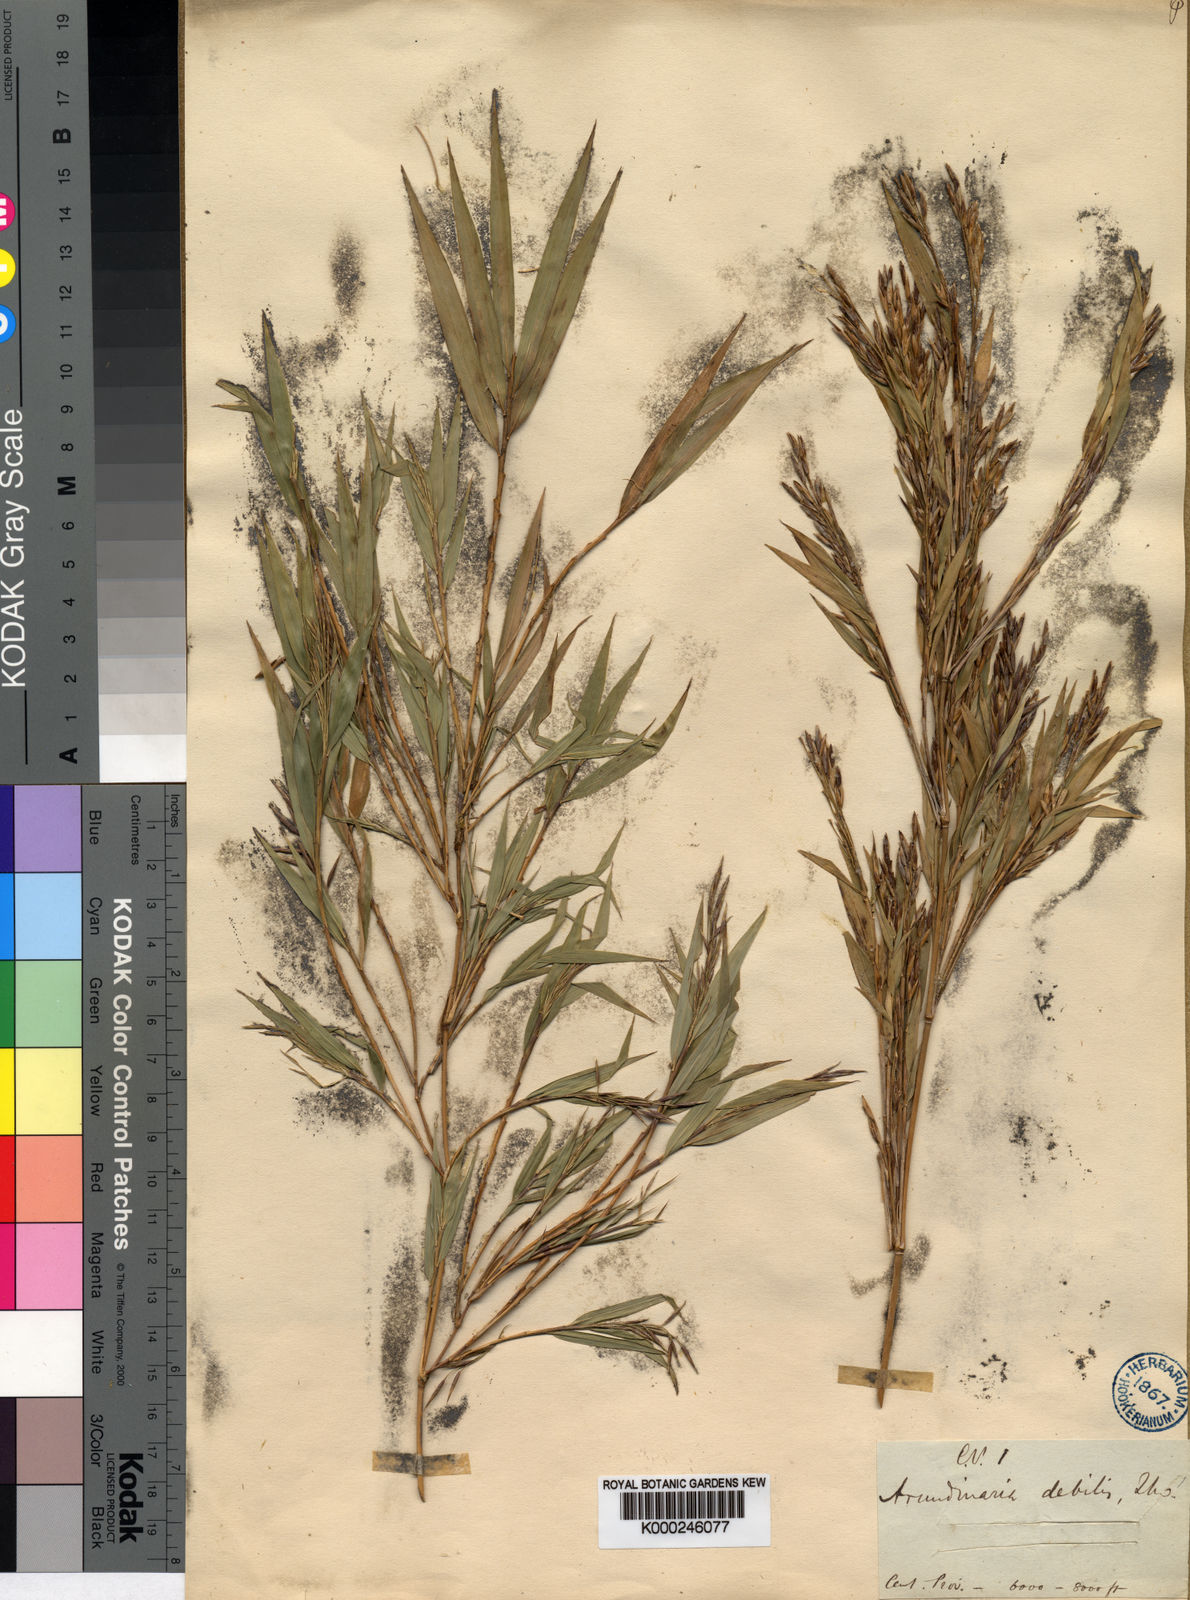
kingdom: Plantae
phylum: Tracheophyta
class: Liliopsida
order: Poales
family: Poaceae
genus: Kuruna
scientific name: Kuruna debilis
